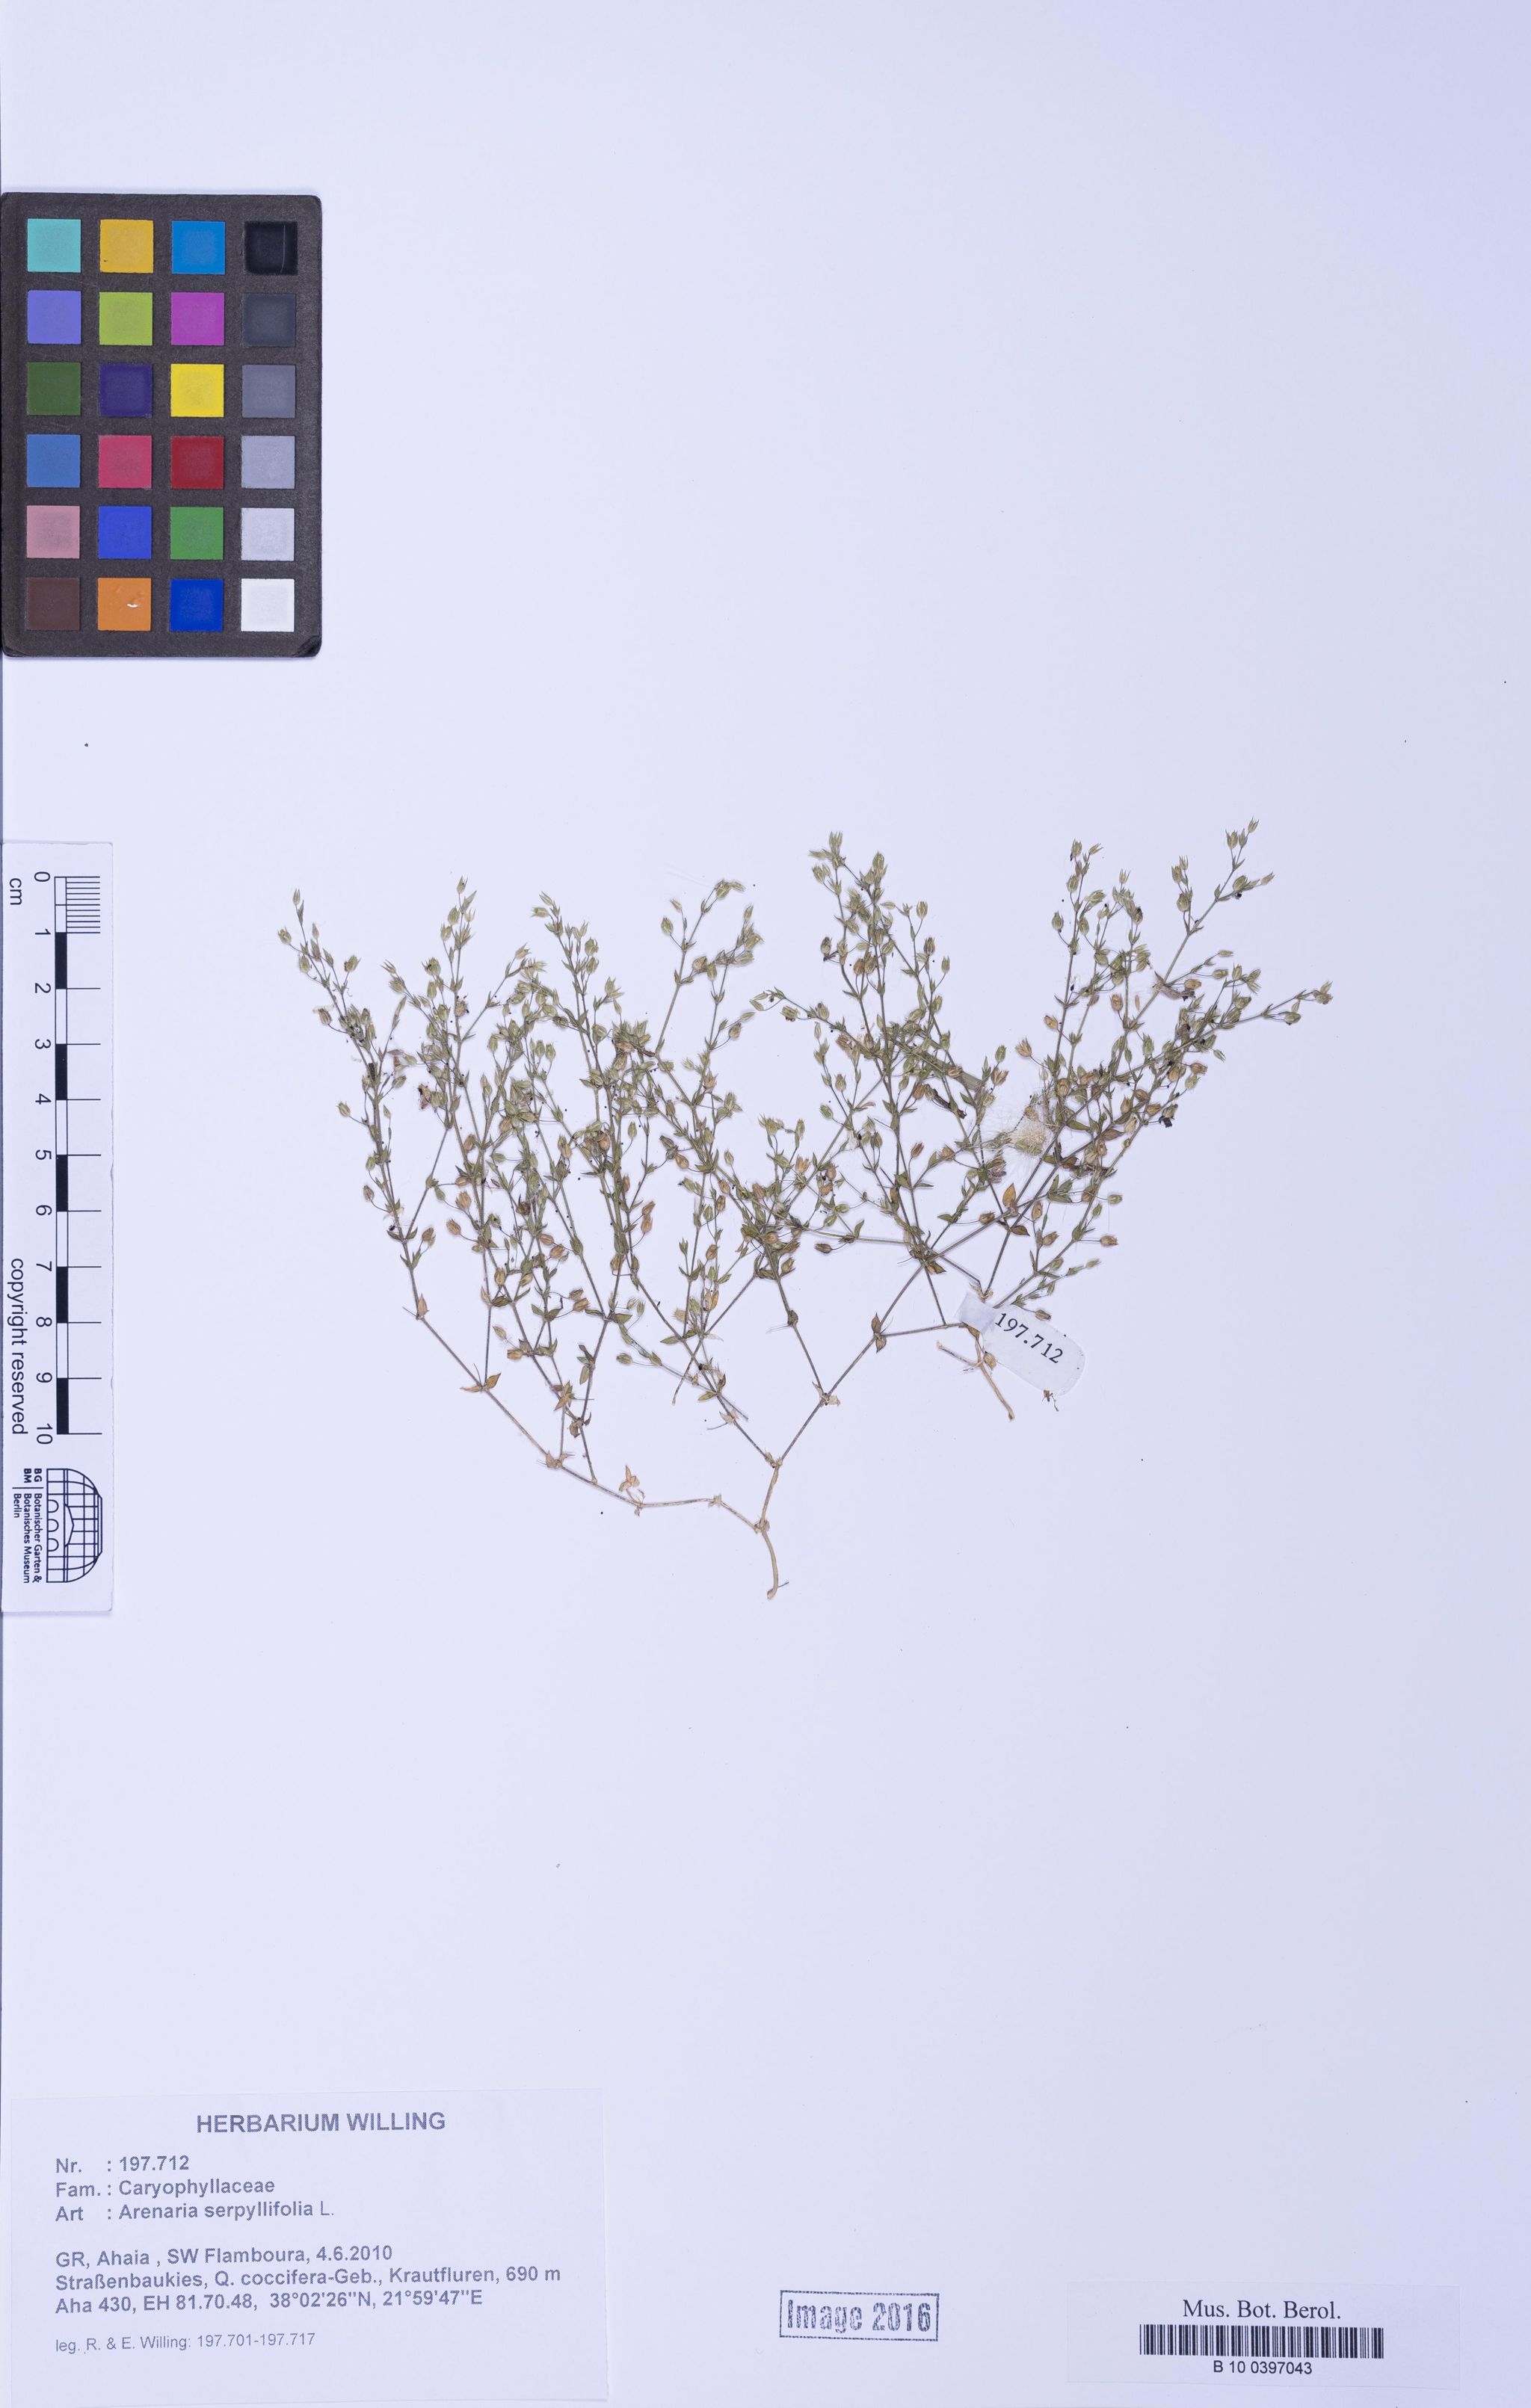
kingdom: Plantae
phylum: Tracheophyta
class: Magnoliopsida
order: Caryophyllales
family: Caryophyllaceae
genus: Arenaria
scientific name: Arenaria serpyllifolia
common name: Thyme-leaved sandwort
